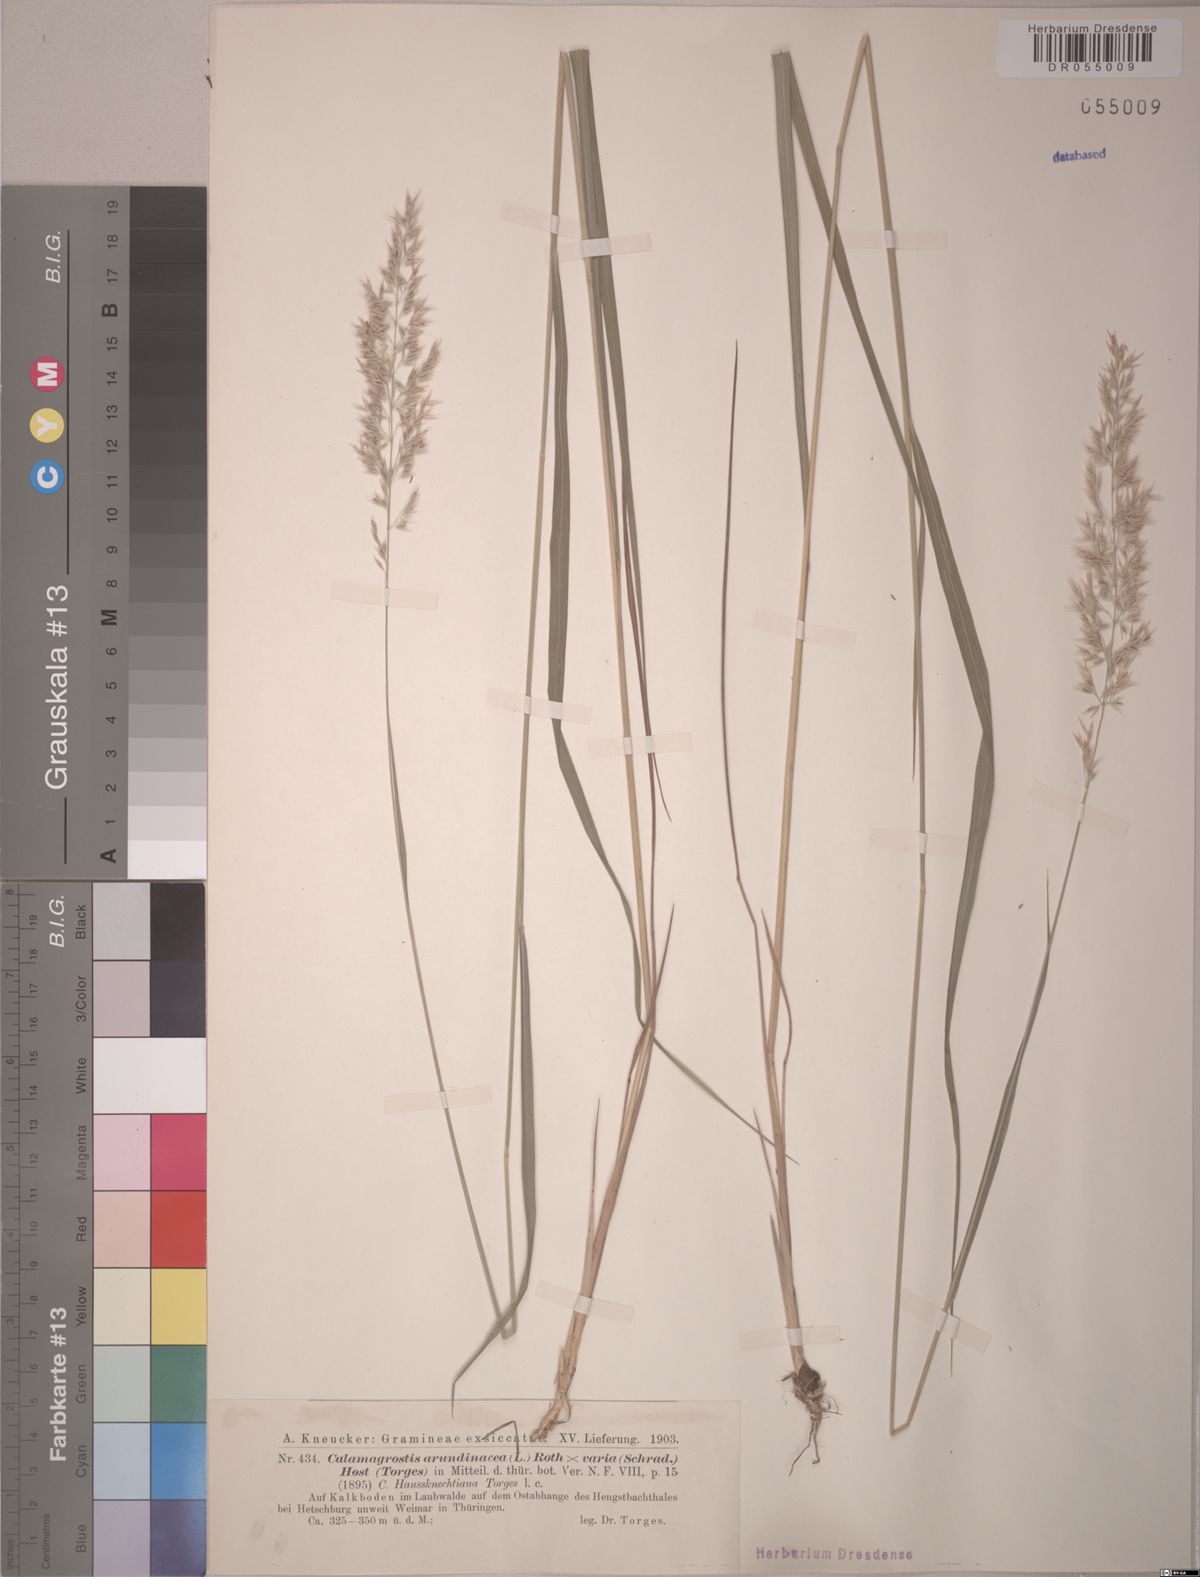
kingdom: Plantae
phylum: Tracheophyta
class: Liliopsida
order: Poales
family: Poaceae
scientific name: Poaceae
